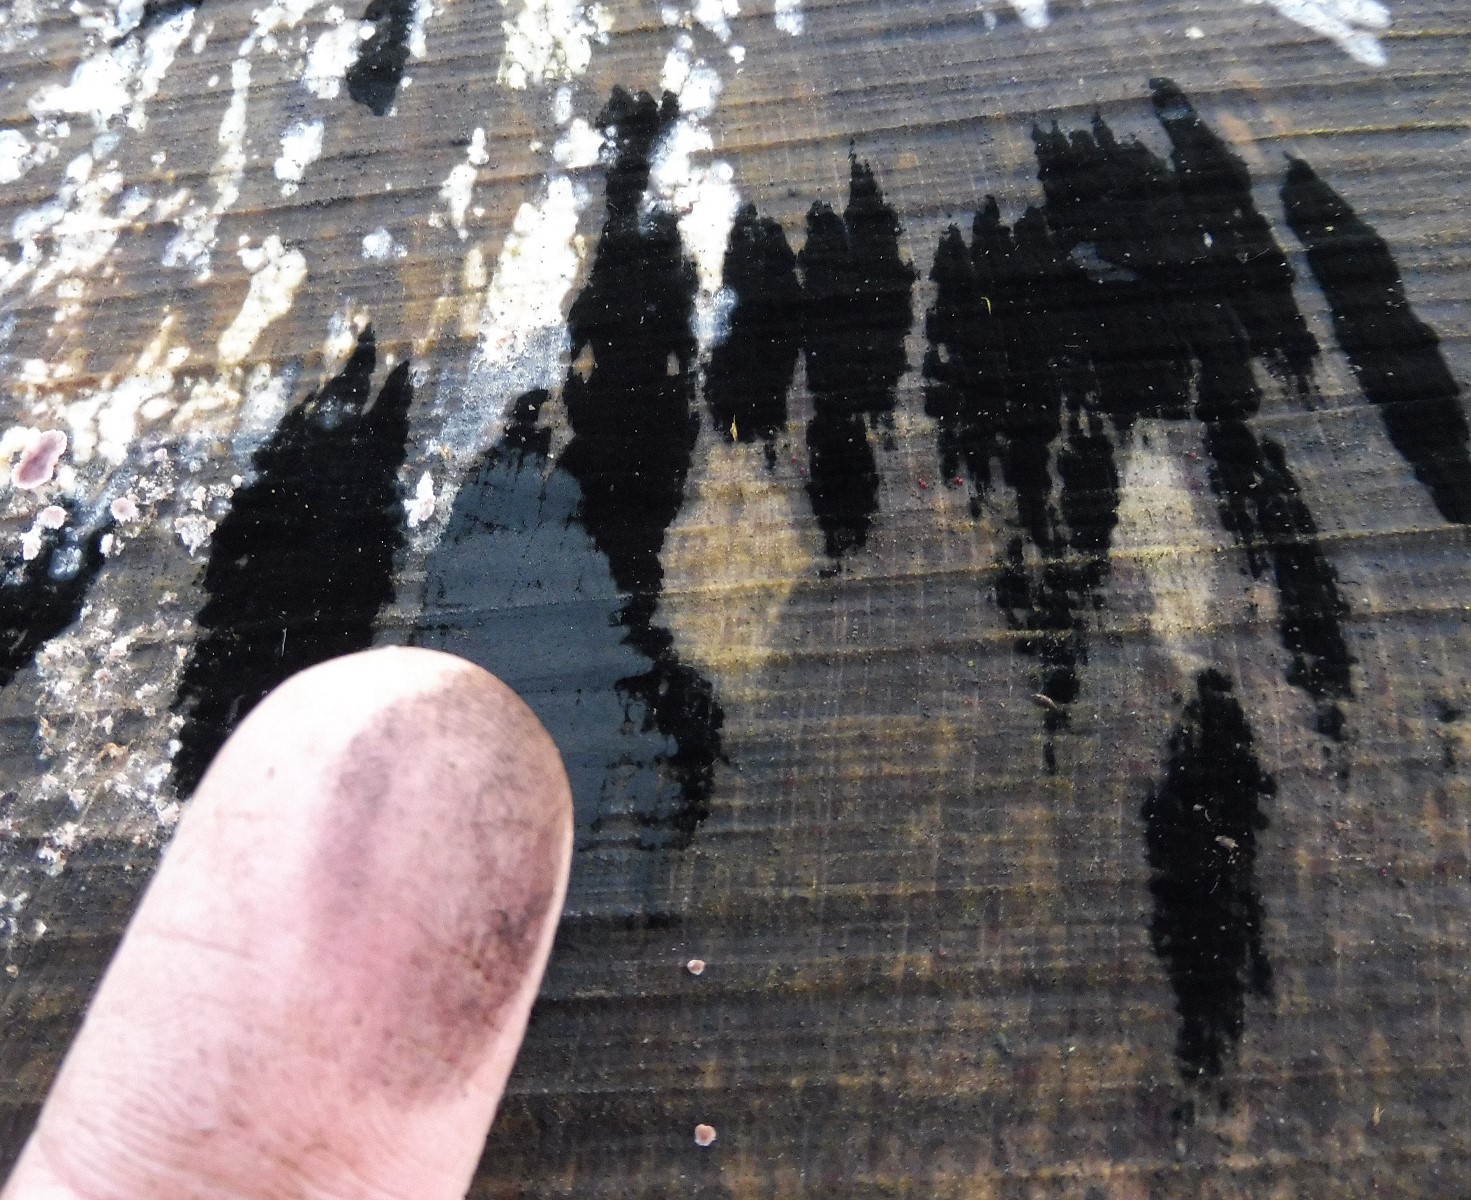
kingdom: Fungi
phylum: Ascomycota
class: Leotiomycetes
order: Helotiales
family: Helotiaceae
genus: Bispora
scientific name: Bispora pallescens
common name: måtte-snitskive
